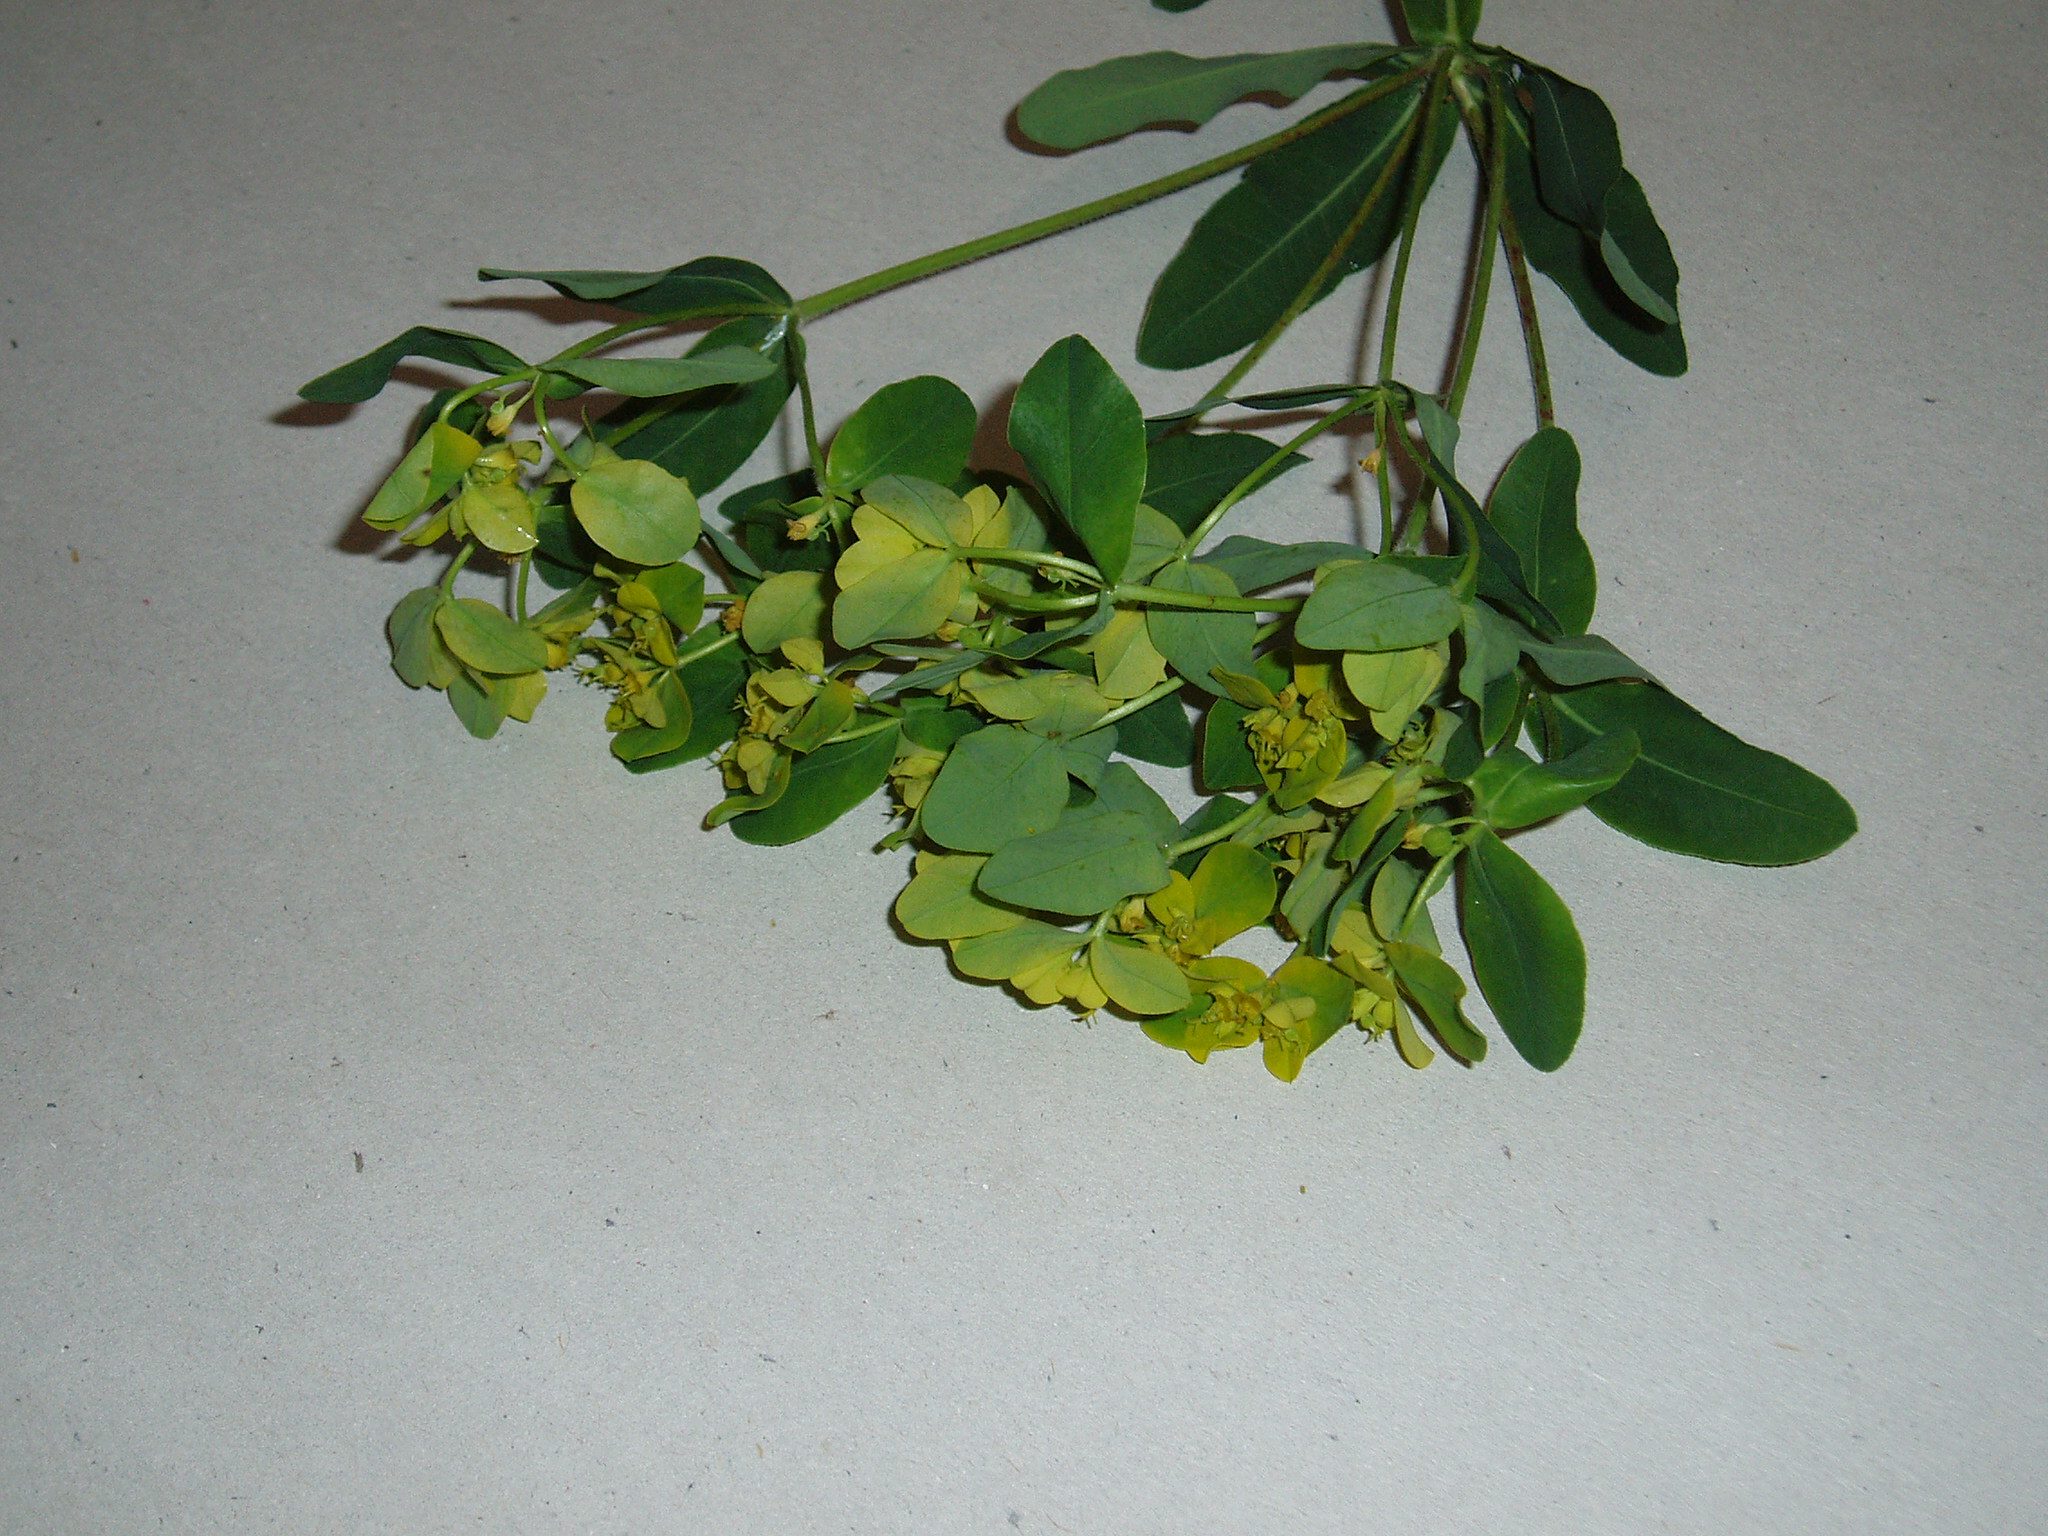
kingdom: Plantae
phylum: Tracheophyta
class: Magnoliopsida
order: Malpighiales
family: Euphorbiaceae
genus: Euphorbia
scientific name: Euphorbia oblongata
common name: Balkan spurge
